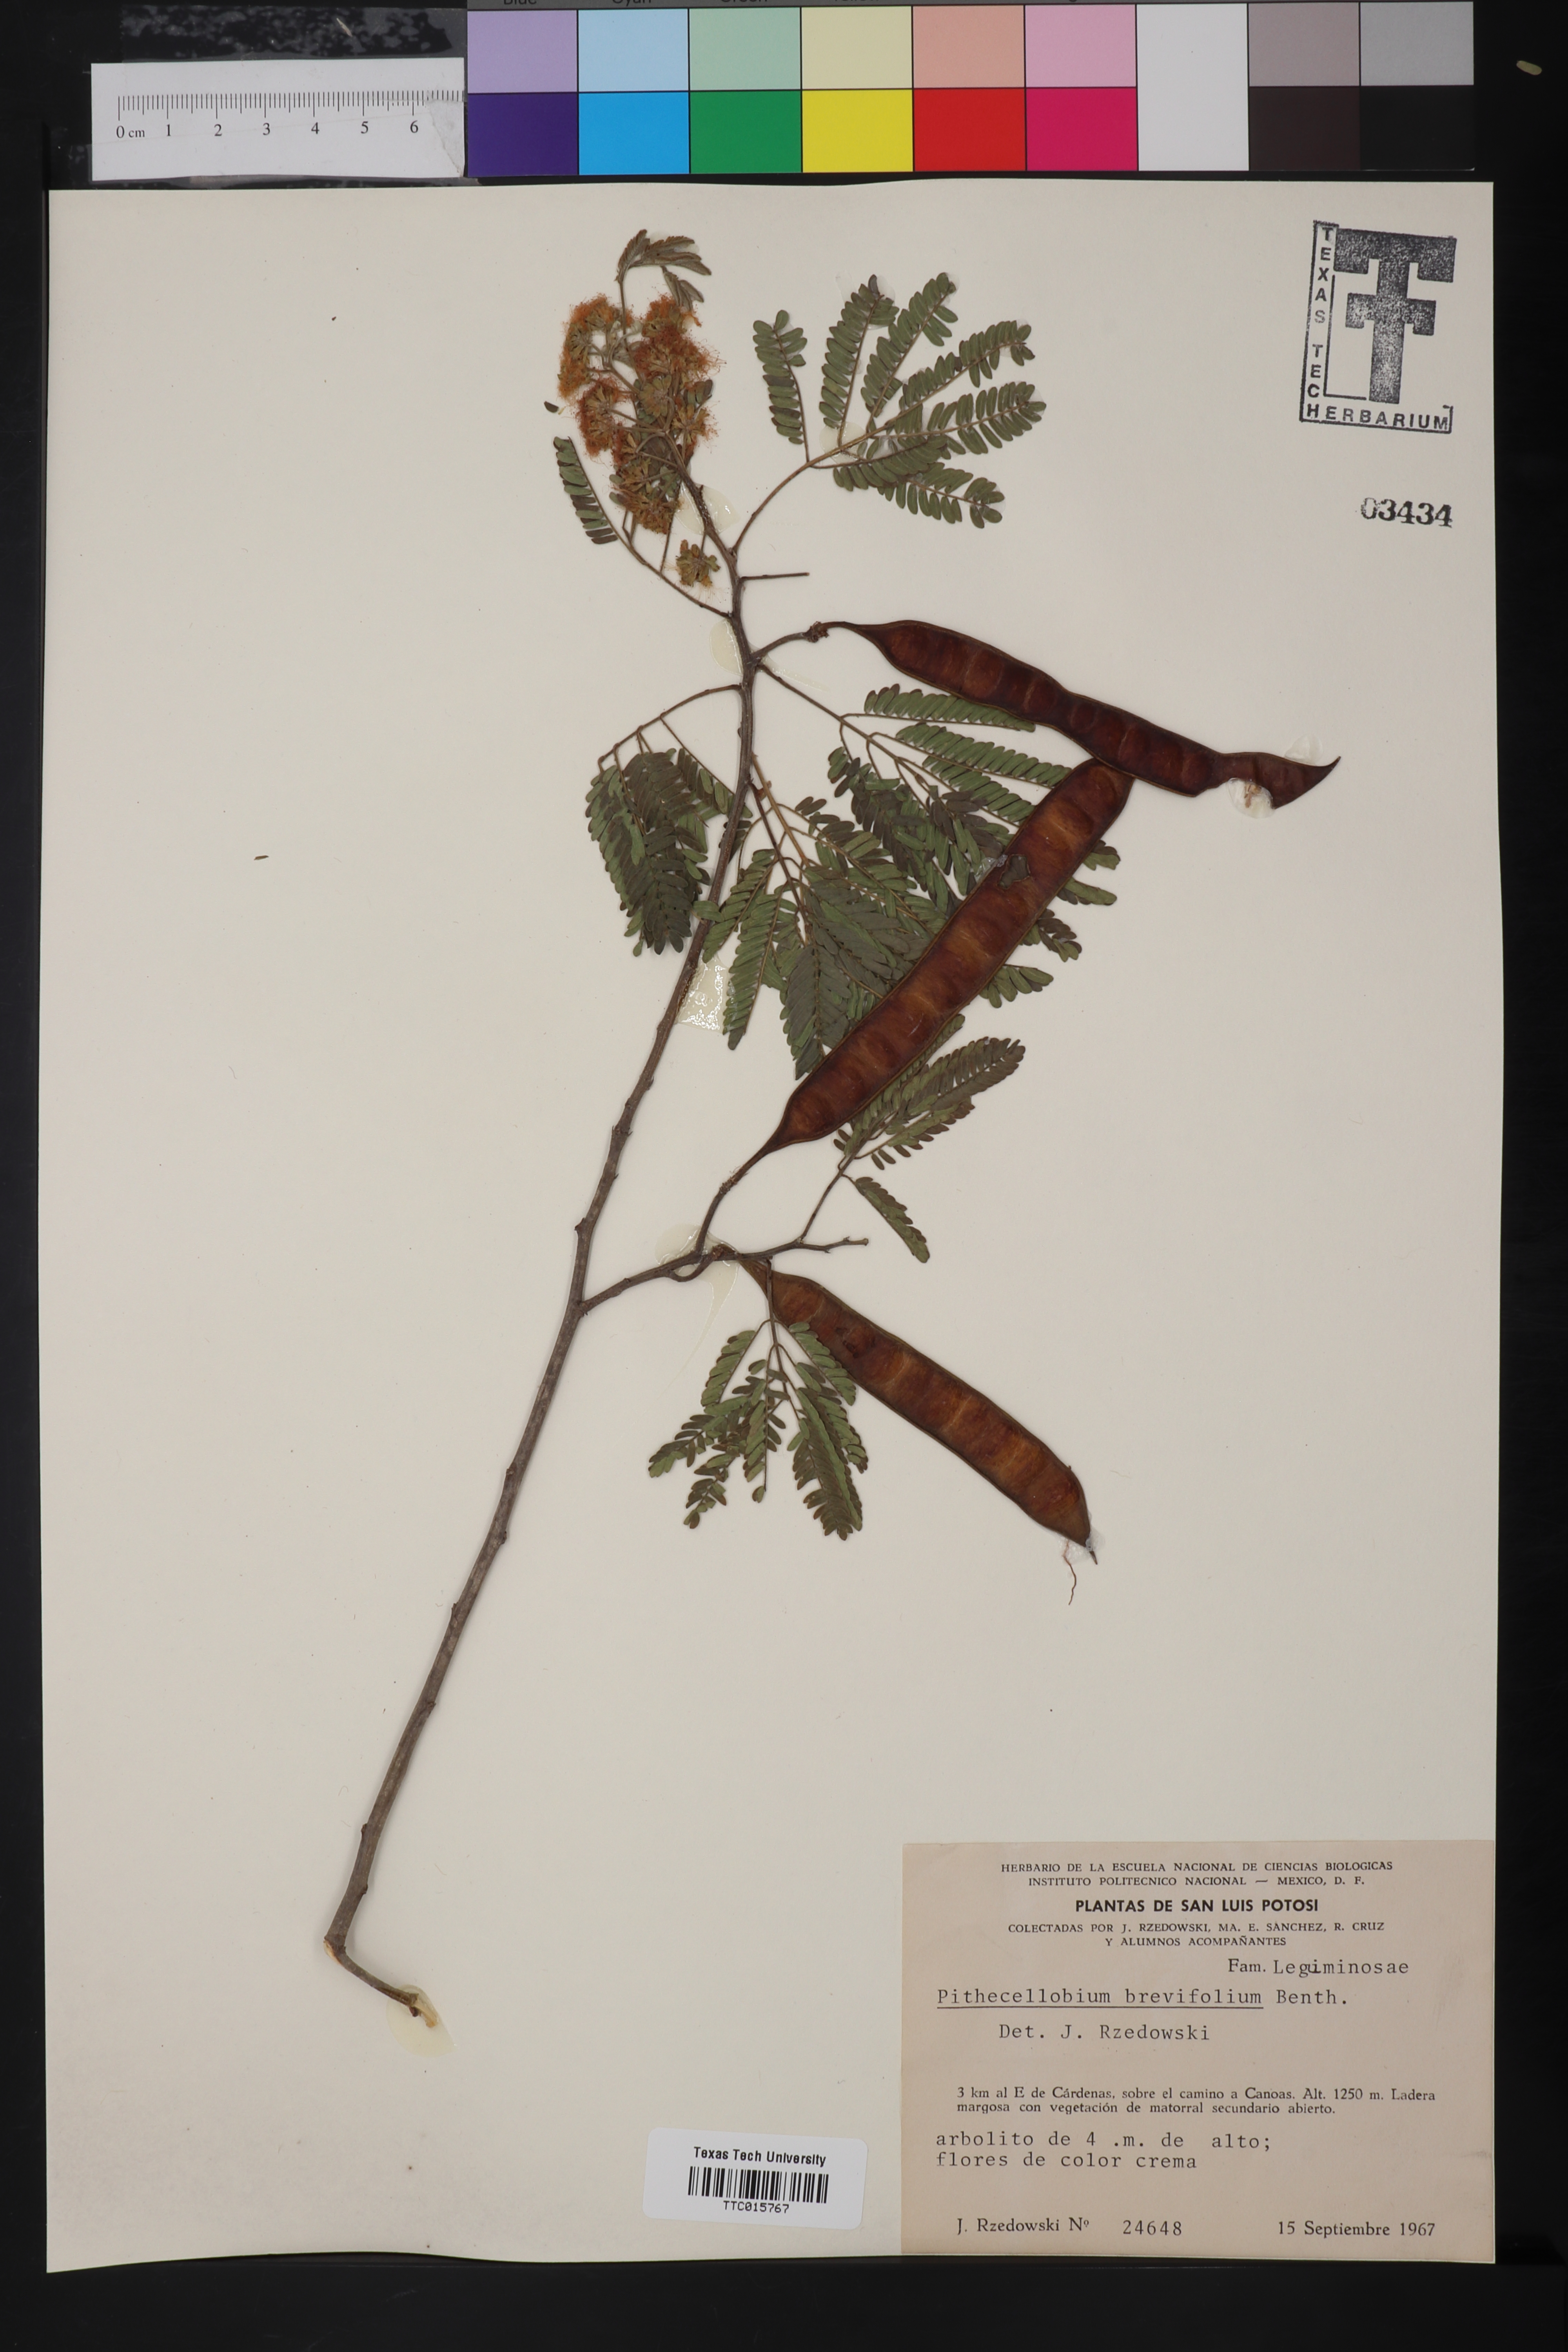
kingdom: Plantae
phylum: Tracheophyta
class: Magnoliopsida
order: Fabales
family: Fabaceae
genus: Havardia
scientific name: Havardia pallens
